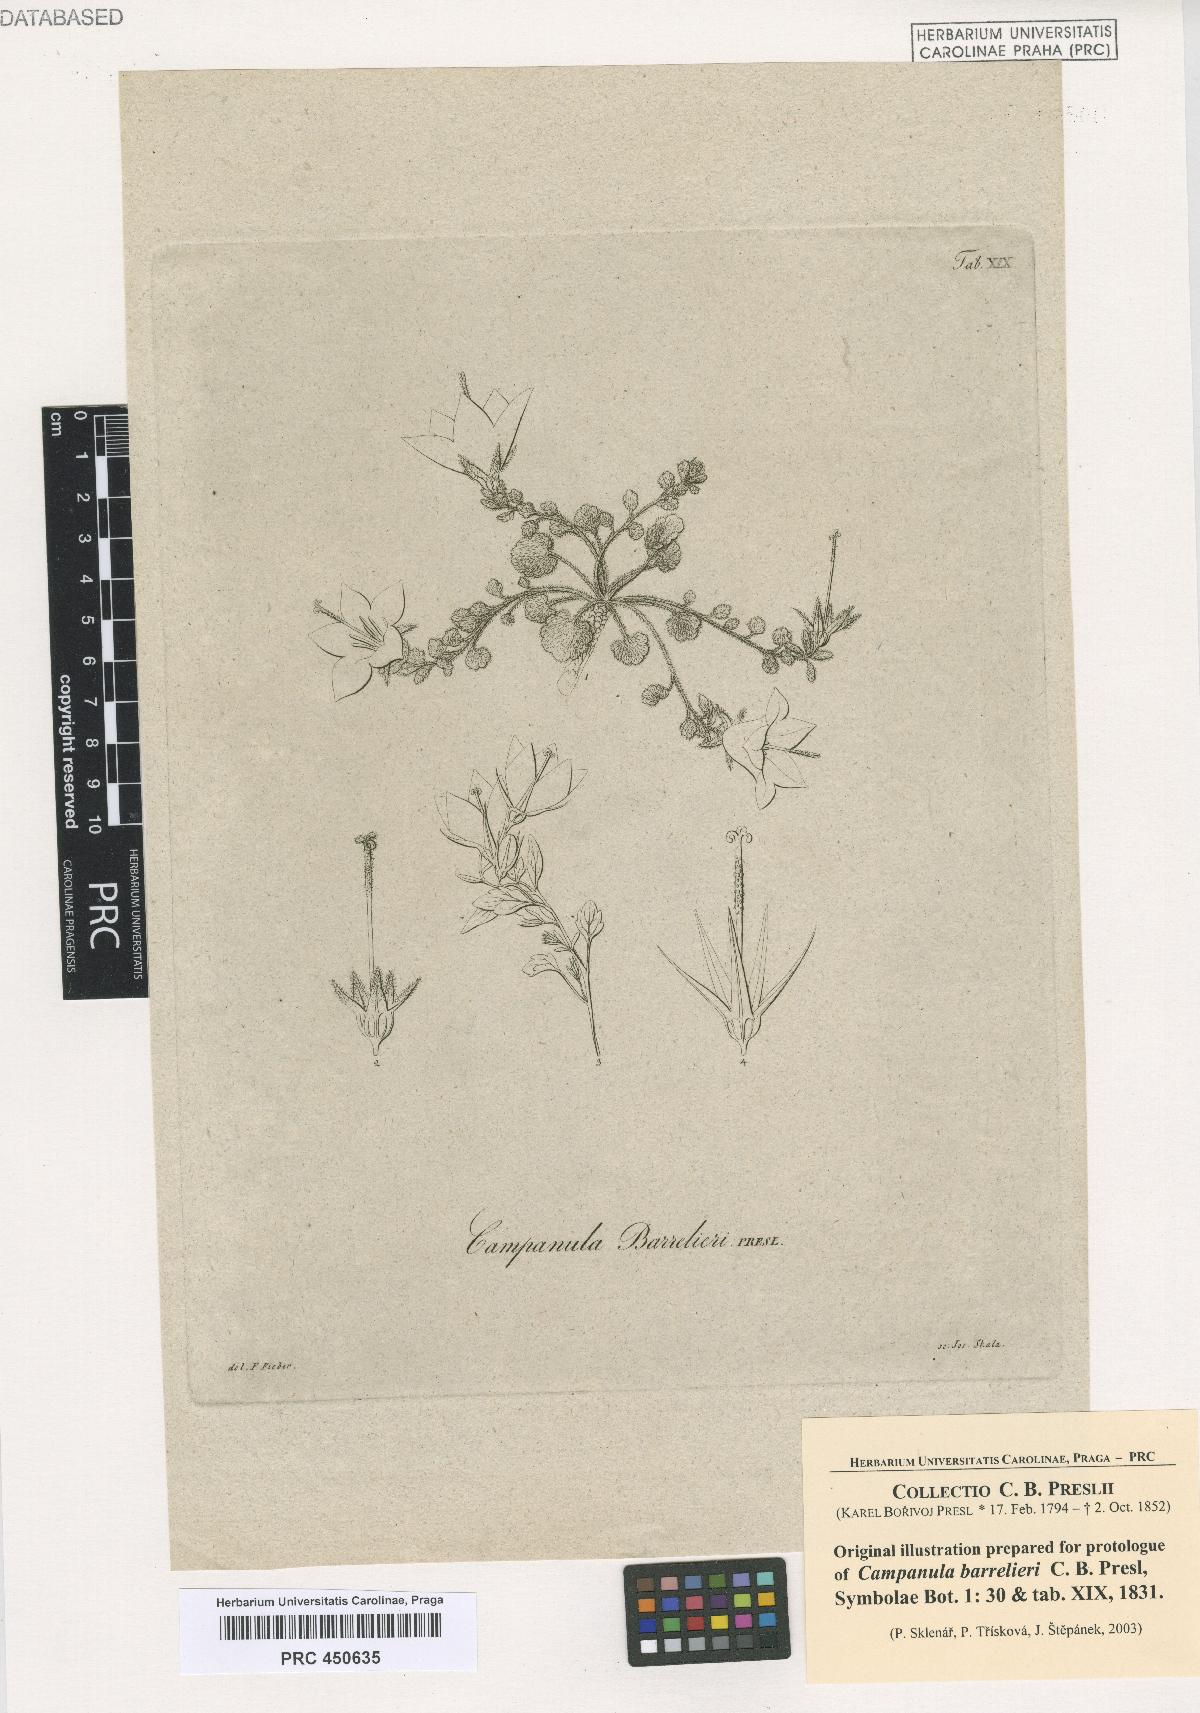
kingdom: Plantae
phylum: Tracheophyta
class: Magnoliopsida
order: Asterales
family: Campanulaceae
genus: Campanula
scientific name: Campanula fragilis
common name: Italian bellflower
